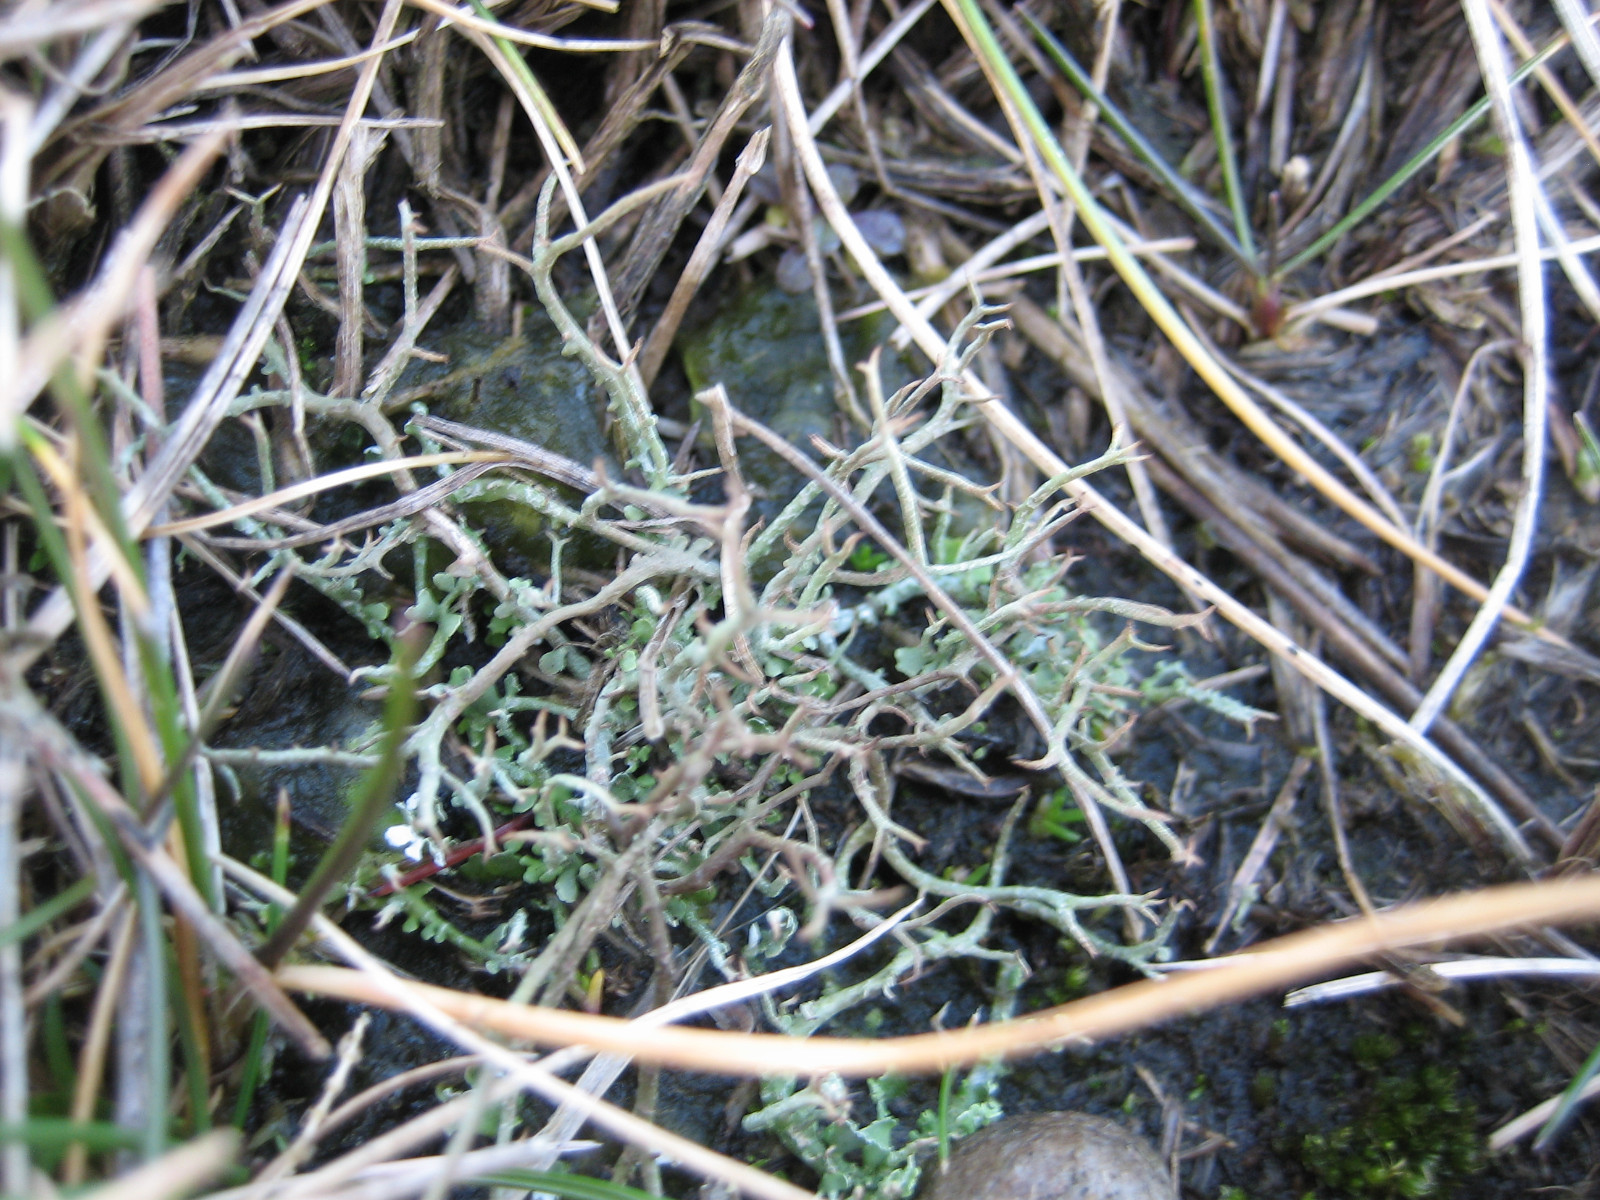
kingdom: Fungi
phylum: Ascomycota
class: Lecanoromycetes
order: Lecanorales
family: Cladoniaceae
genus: Cladonia
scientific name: Cladonia furcata
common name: kløftet bægerlav
